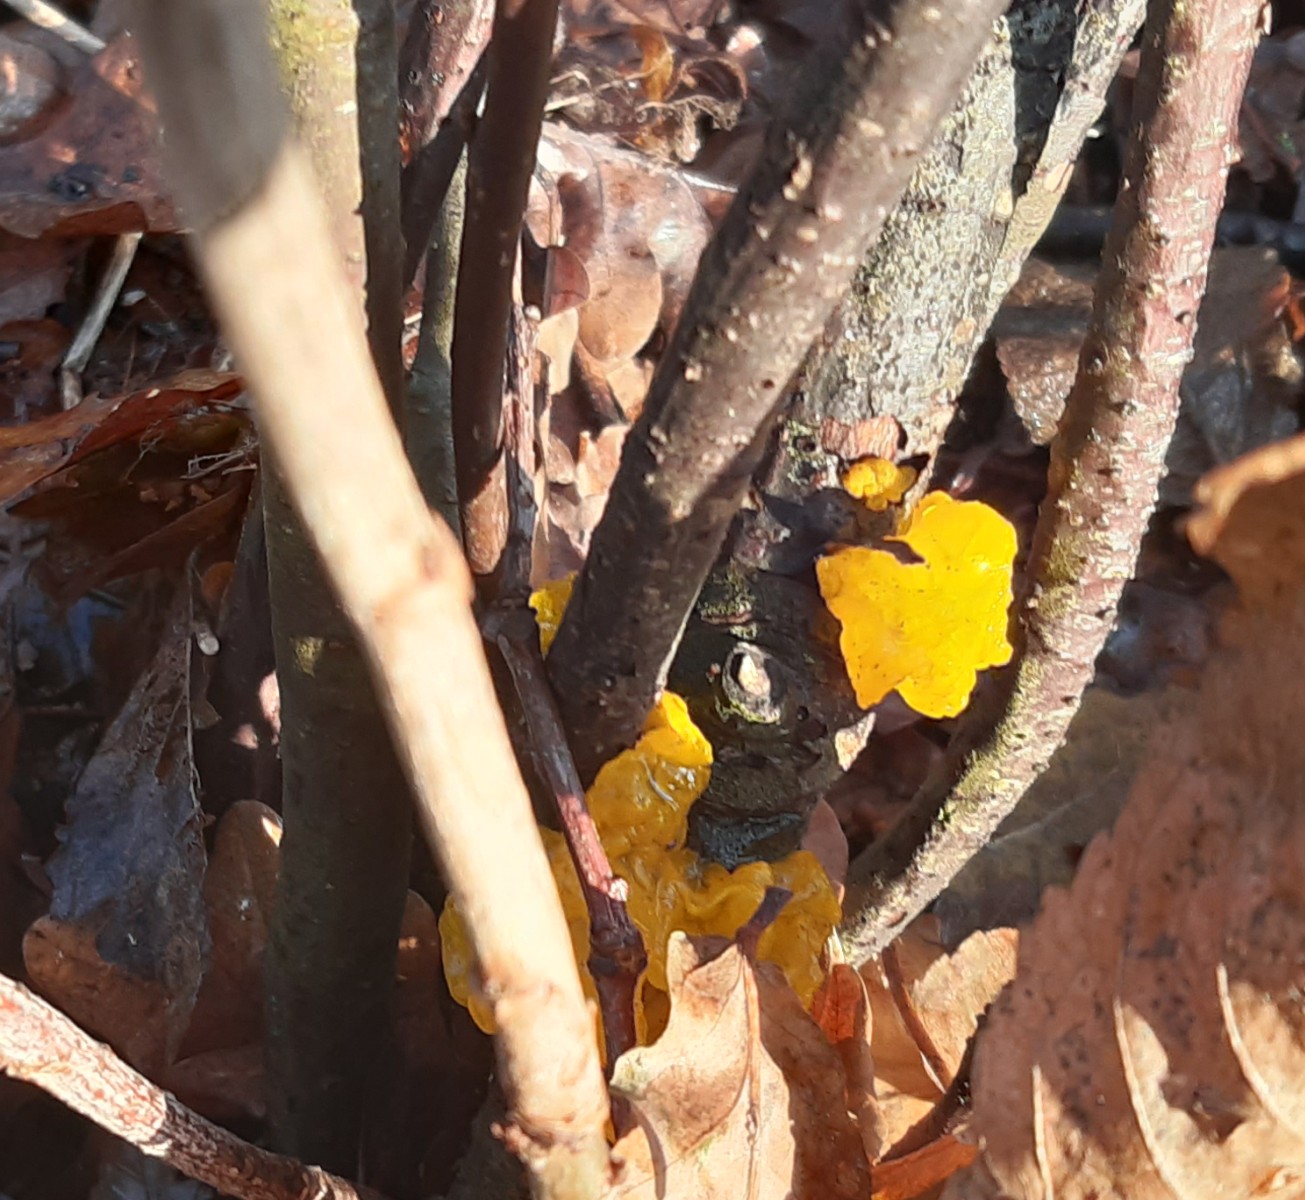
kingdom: Fungi
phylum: Basidiomycota
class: Tremellomycetes
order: Tremellales
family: Tremellaceae
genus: Tremella
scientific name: Tremella mesenterica
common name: gul bævresvamp
